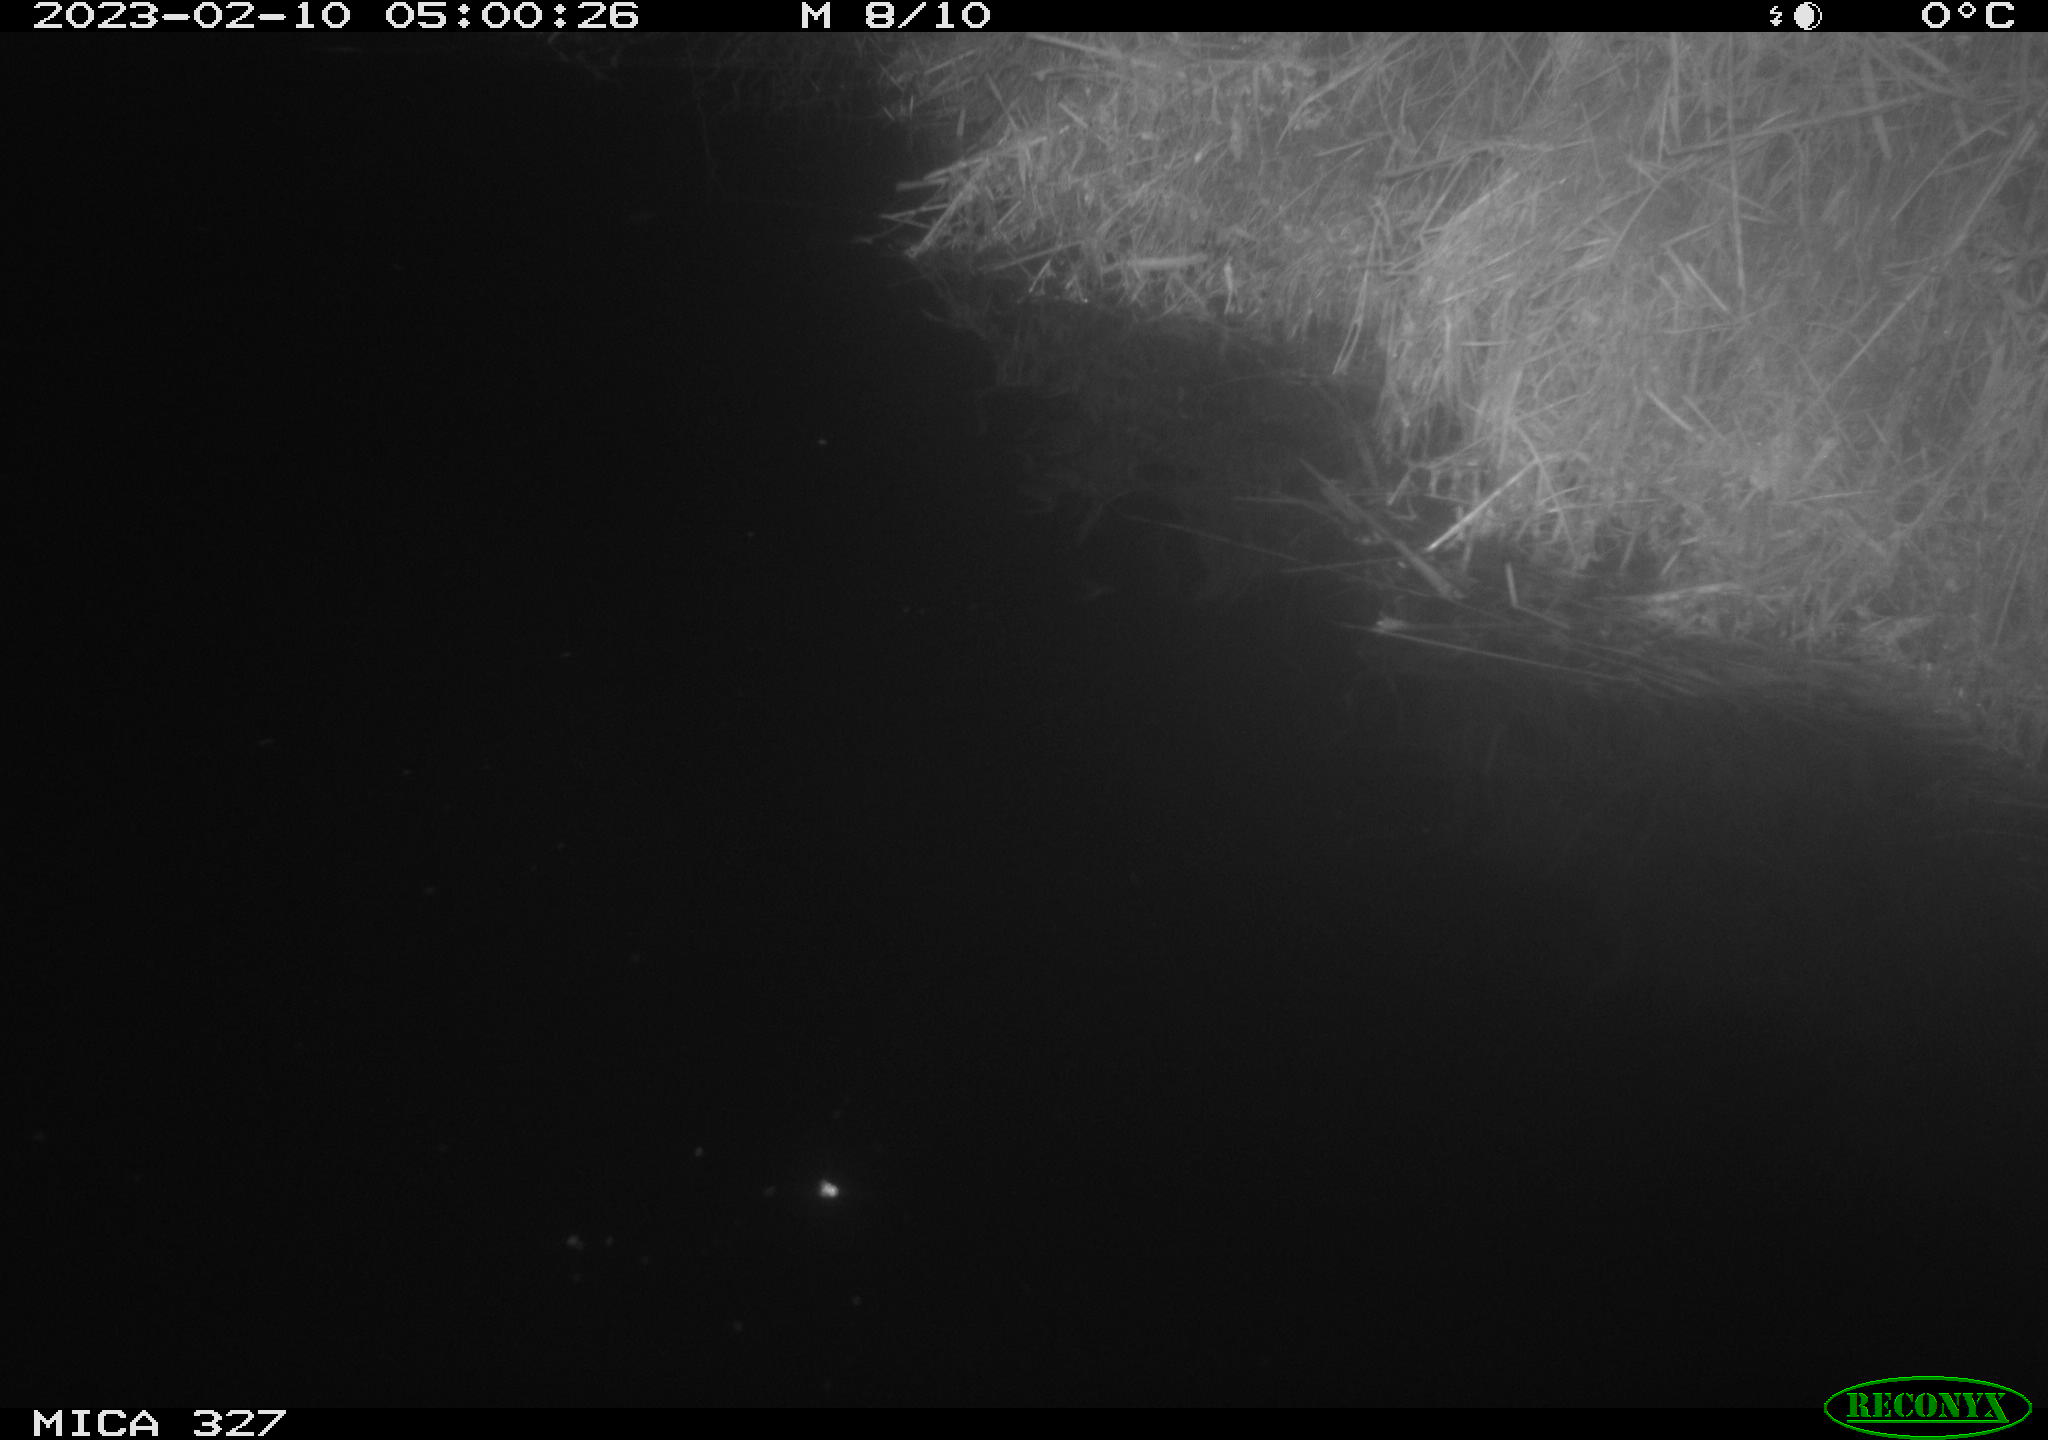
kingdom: Animalia
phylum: Chordata
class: Mammalia
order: Rodentia
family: Cricetidae
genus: Ondatra
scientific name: Ondatra zibethicus
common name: Muskrat
